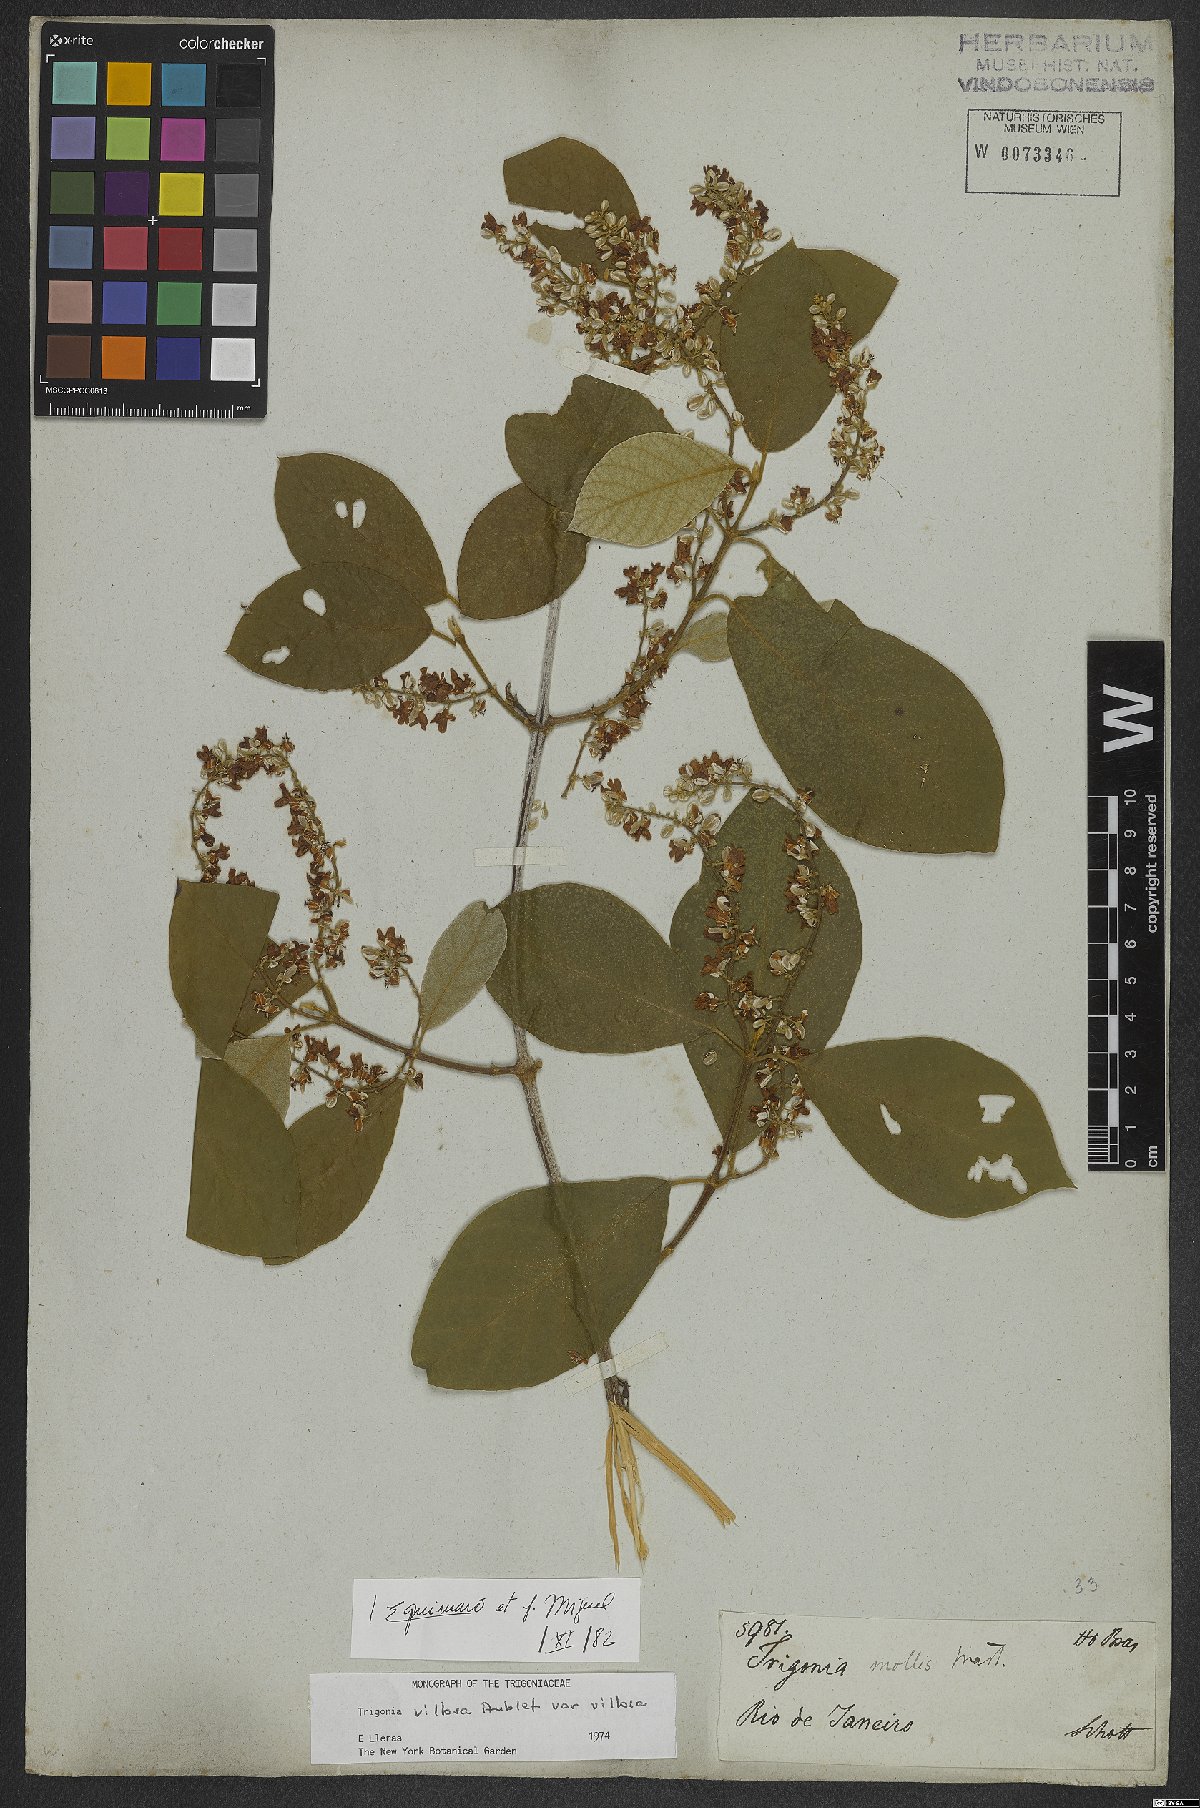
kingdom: Plantae
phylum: Tracheophyta
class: Magnoliopsida
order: Malpighiales
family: Trigoniaceae
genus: Trigonia
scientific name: Trigonia villosa
